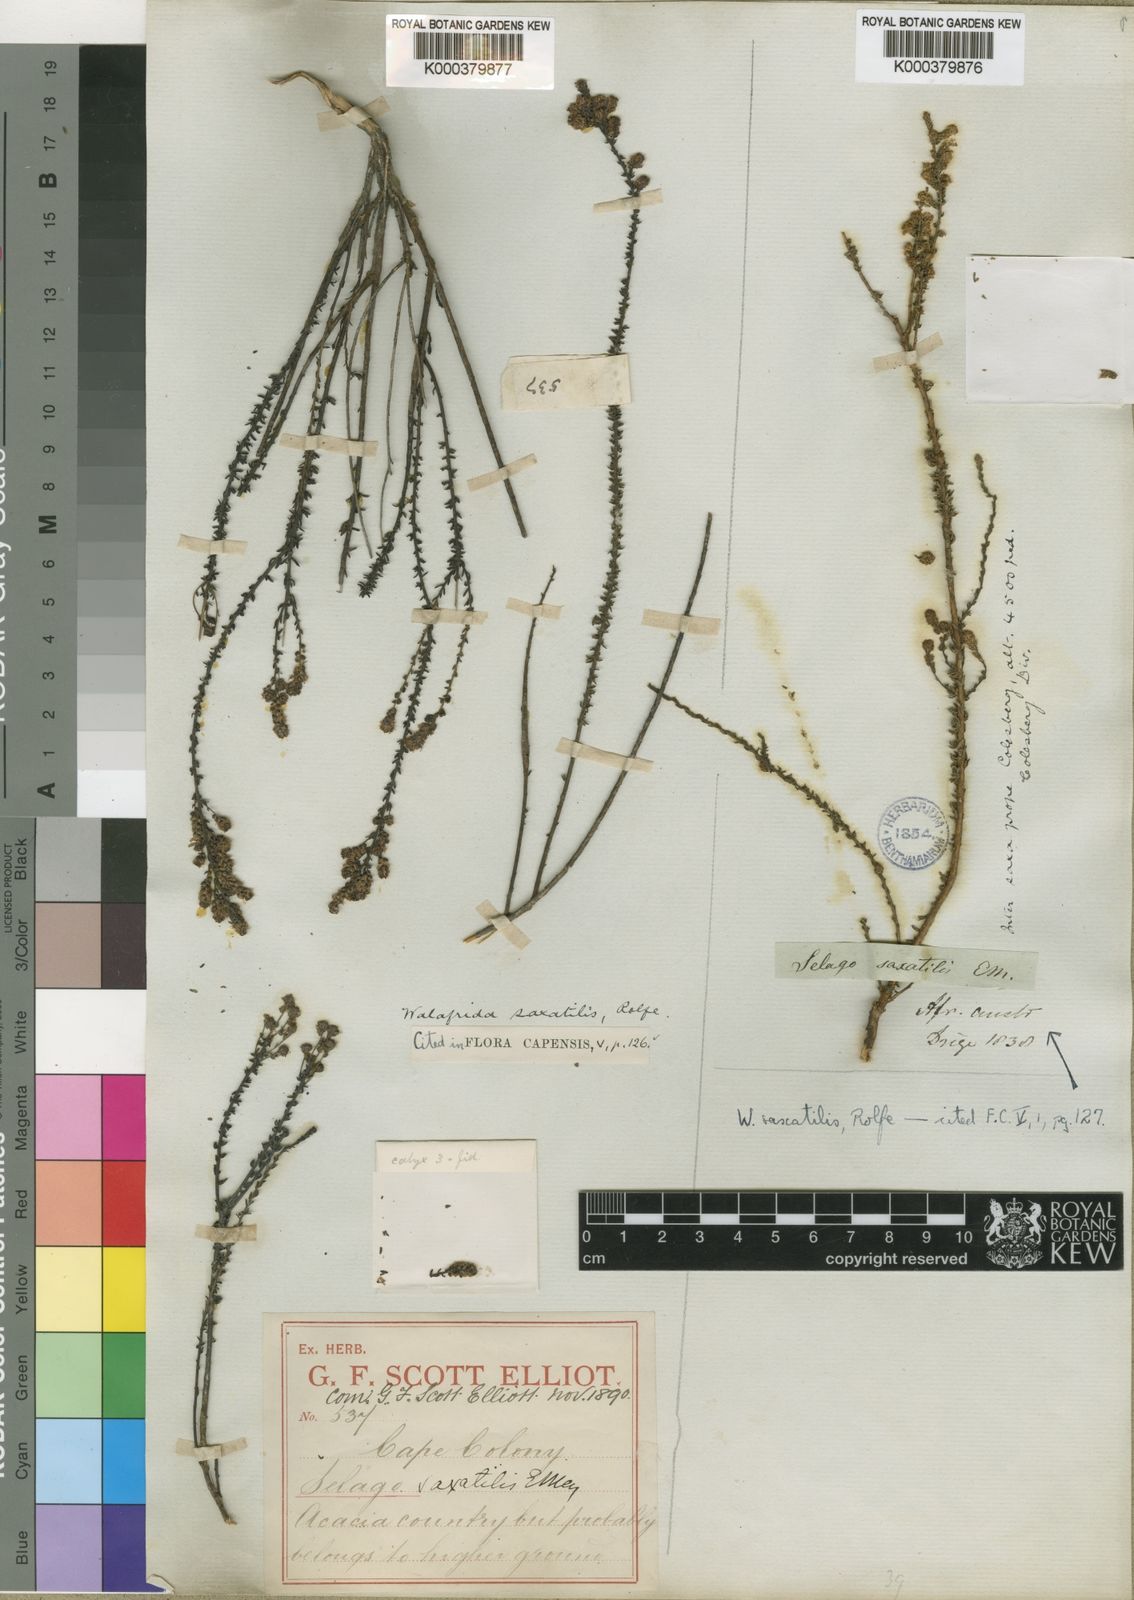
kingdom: Plantae
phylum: Tracheophyta
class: Magnoliopsida
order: Lamiales
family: Scrophulariaceae
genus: Selago
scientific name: Selago saxatilis
